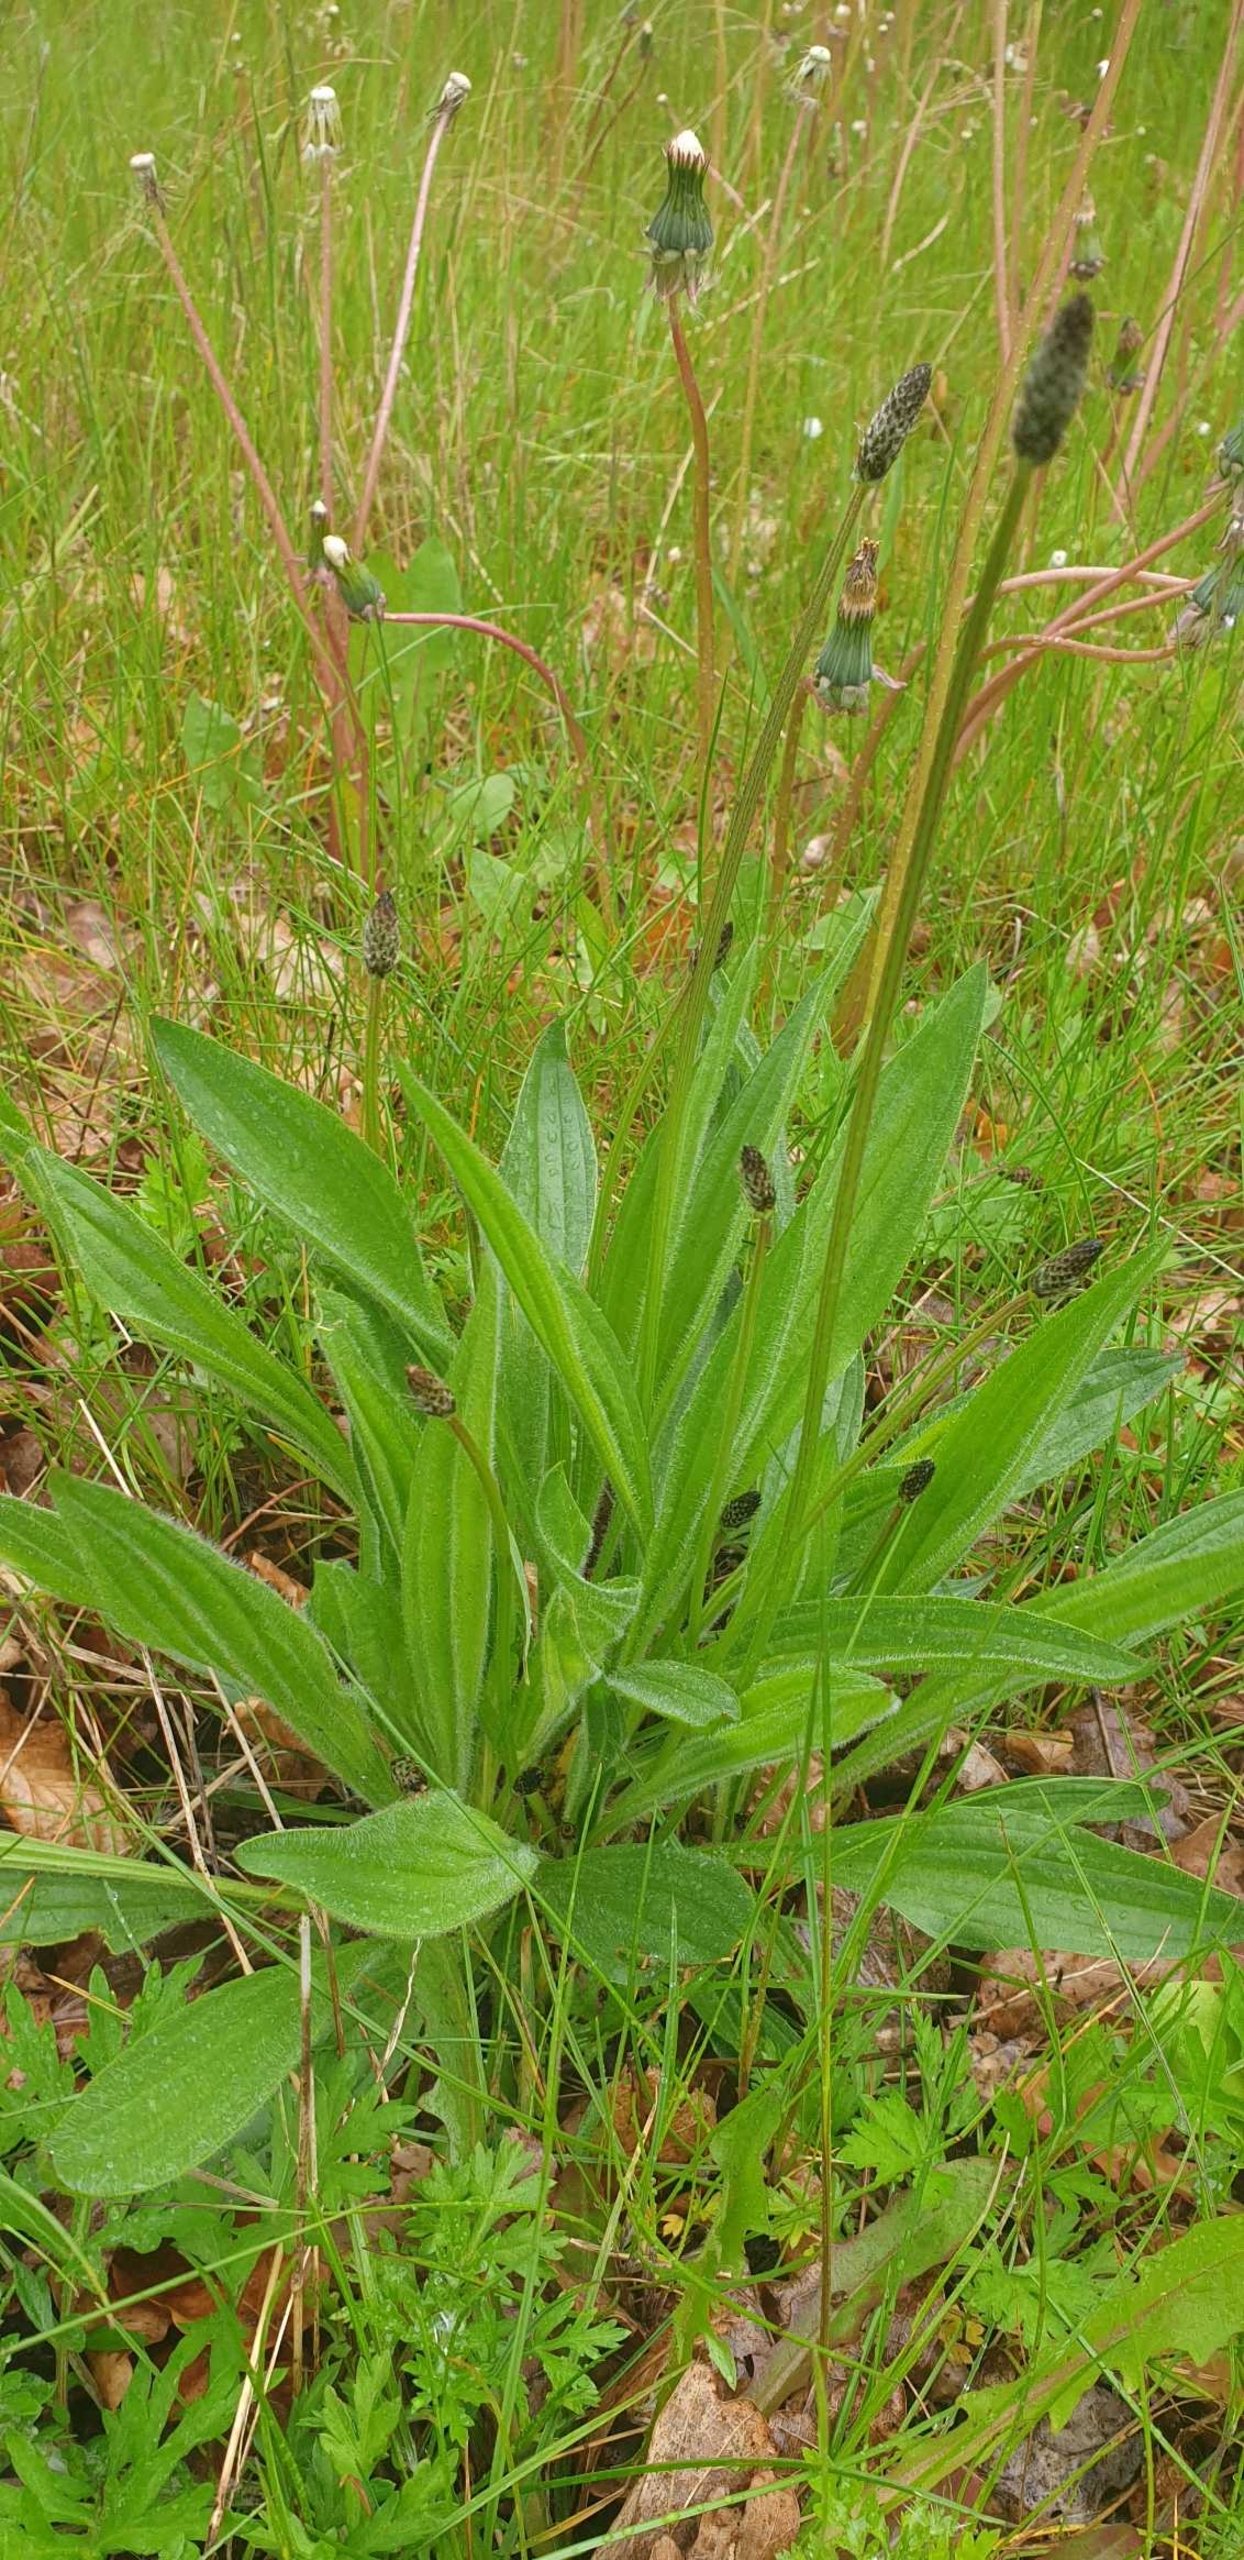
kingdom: Plantae
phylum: Tracheophyta
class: Magnoliopsida
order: Lamiales
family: Plantaginaceae
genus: Plantago
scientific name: Plantago lanceolata
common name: Lancet-vejbred
